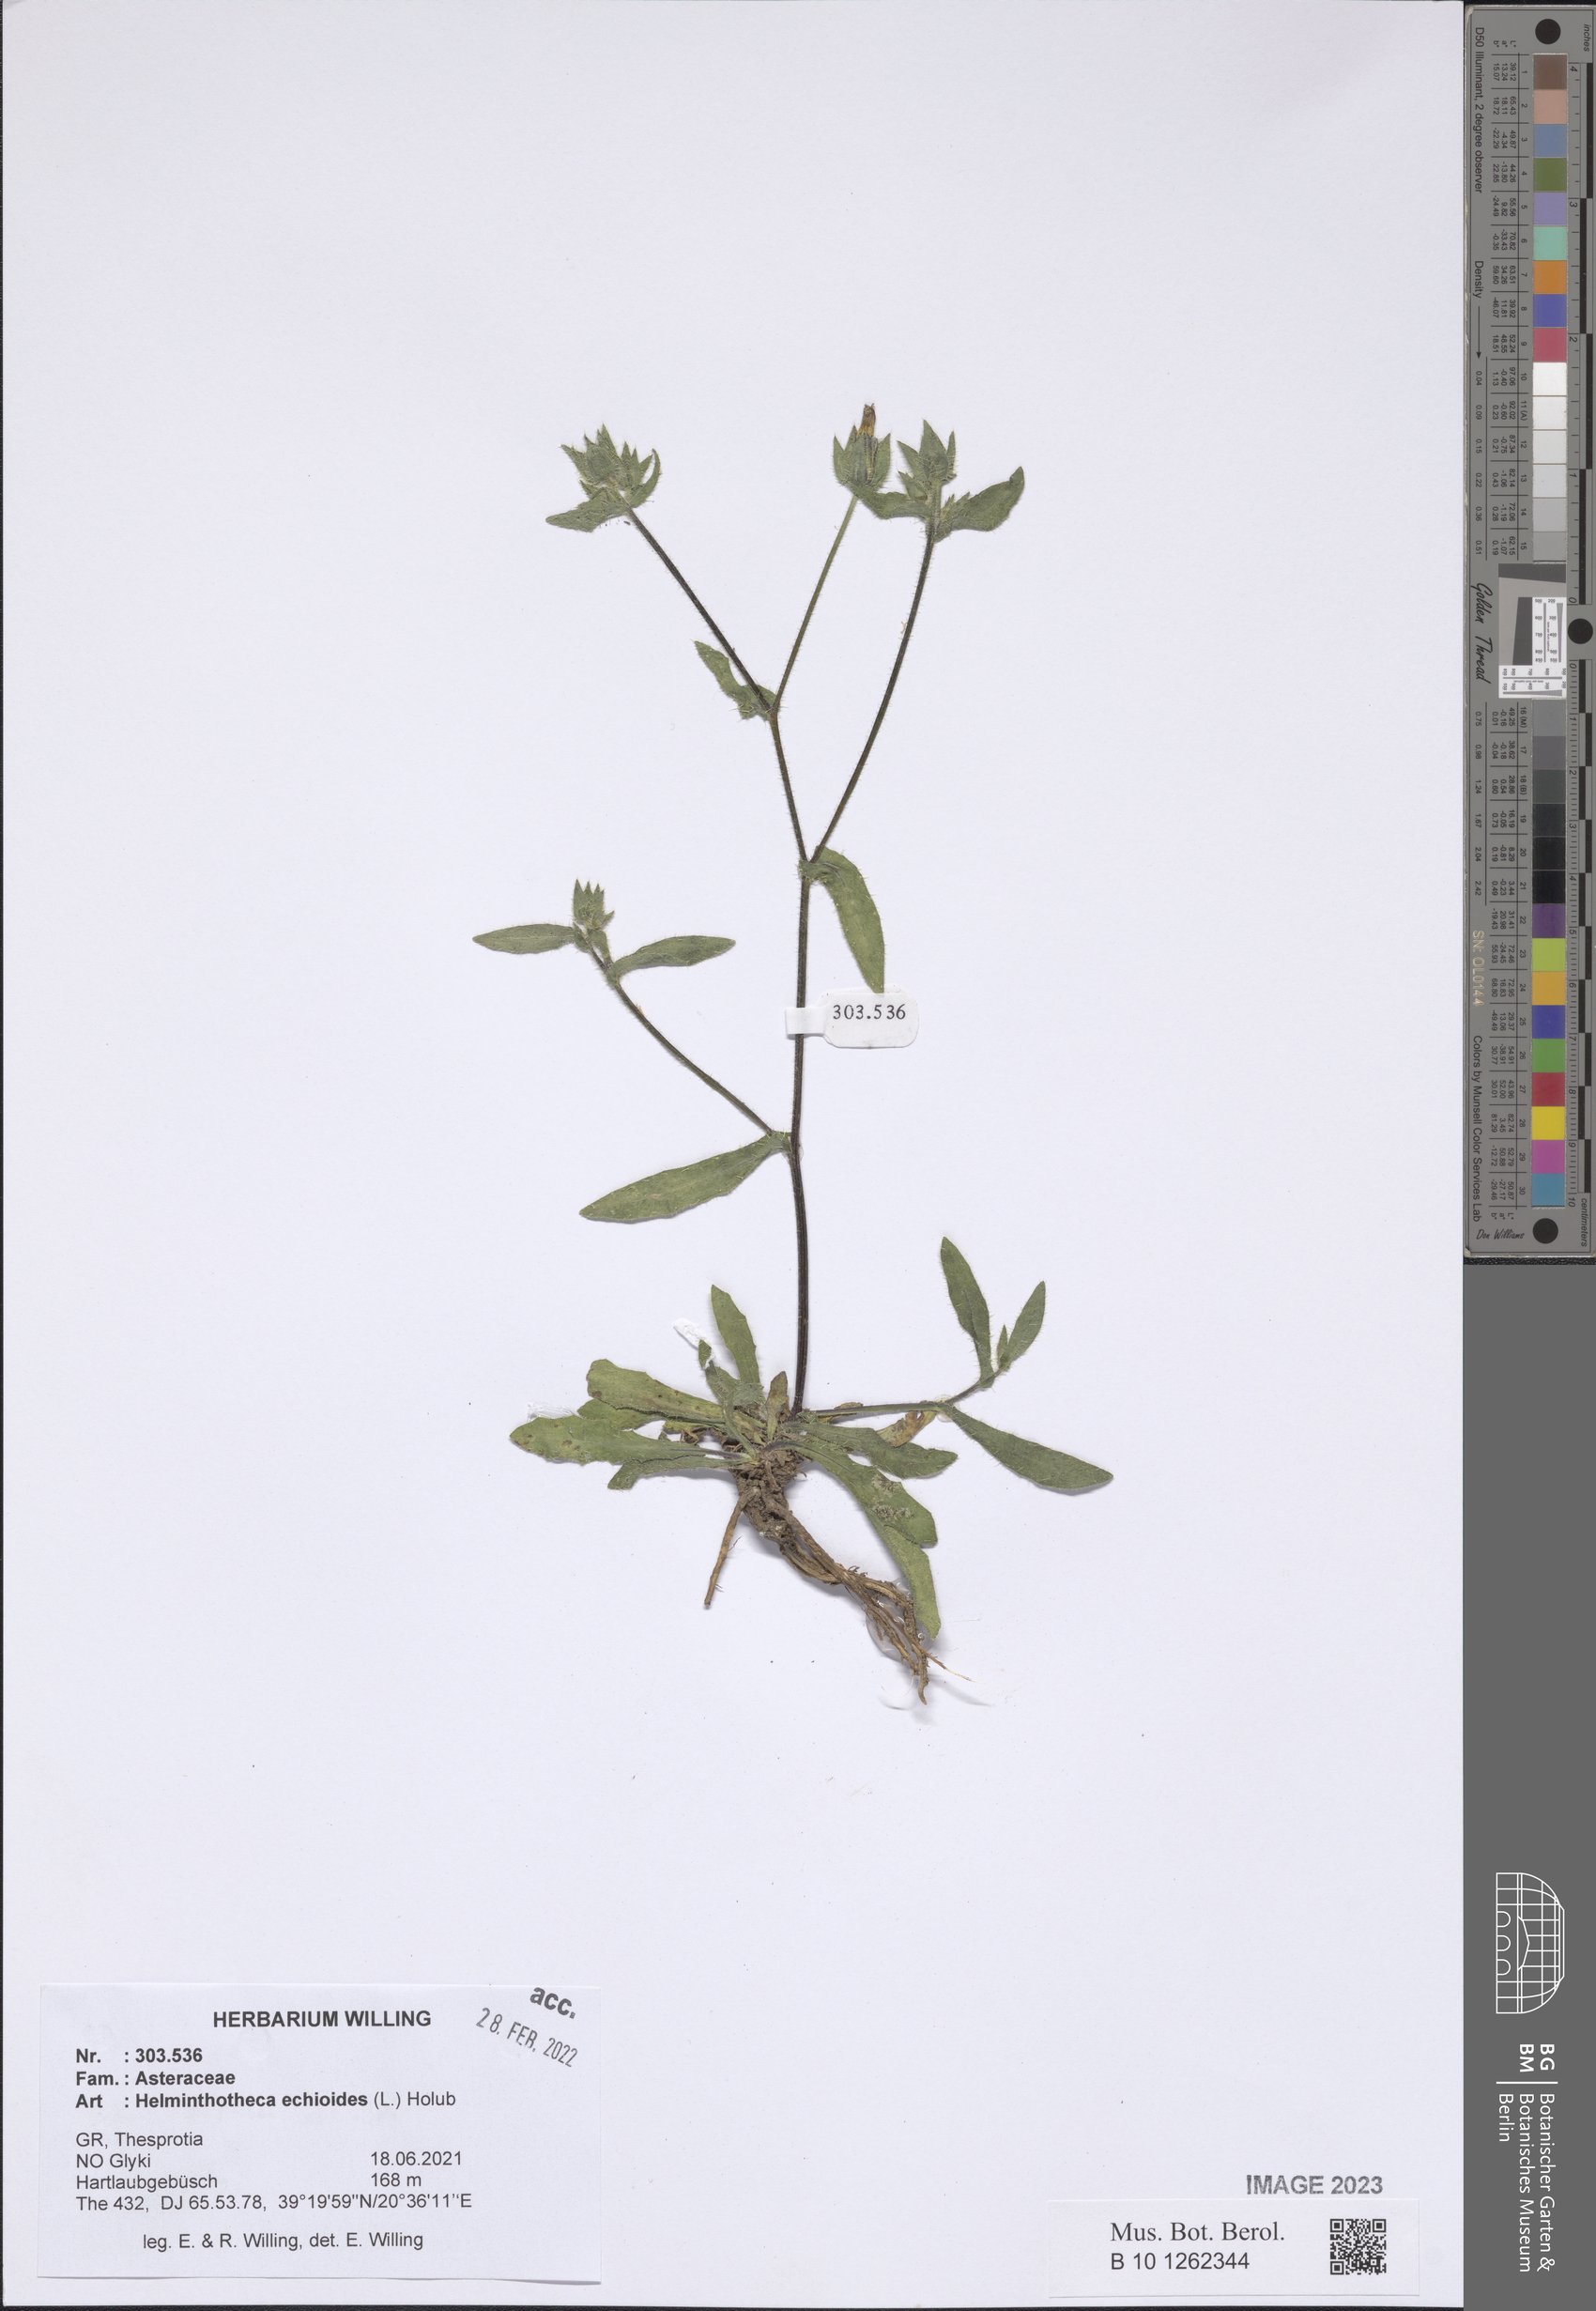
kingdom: Plantae
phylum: Tracheophyta
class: Magnoliopsida
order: Asterales
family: Asteraceae
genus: Helminthotheca
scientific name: Helminthotheca echioides
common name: Ox-tongue
